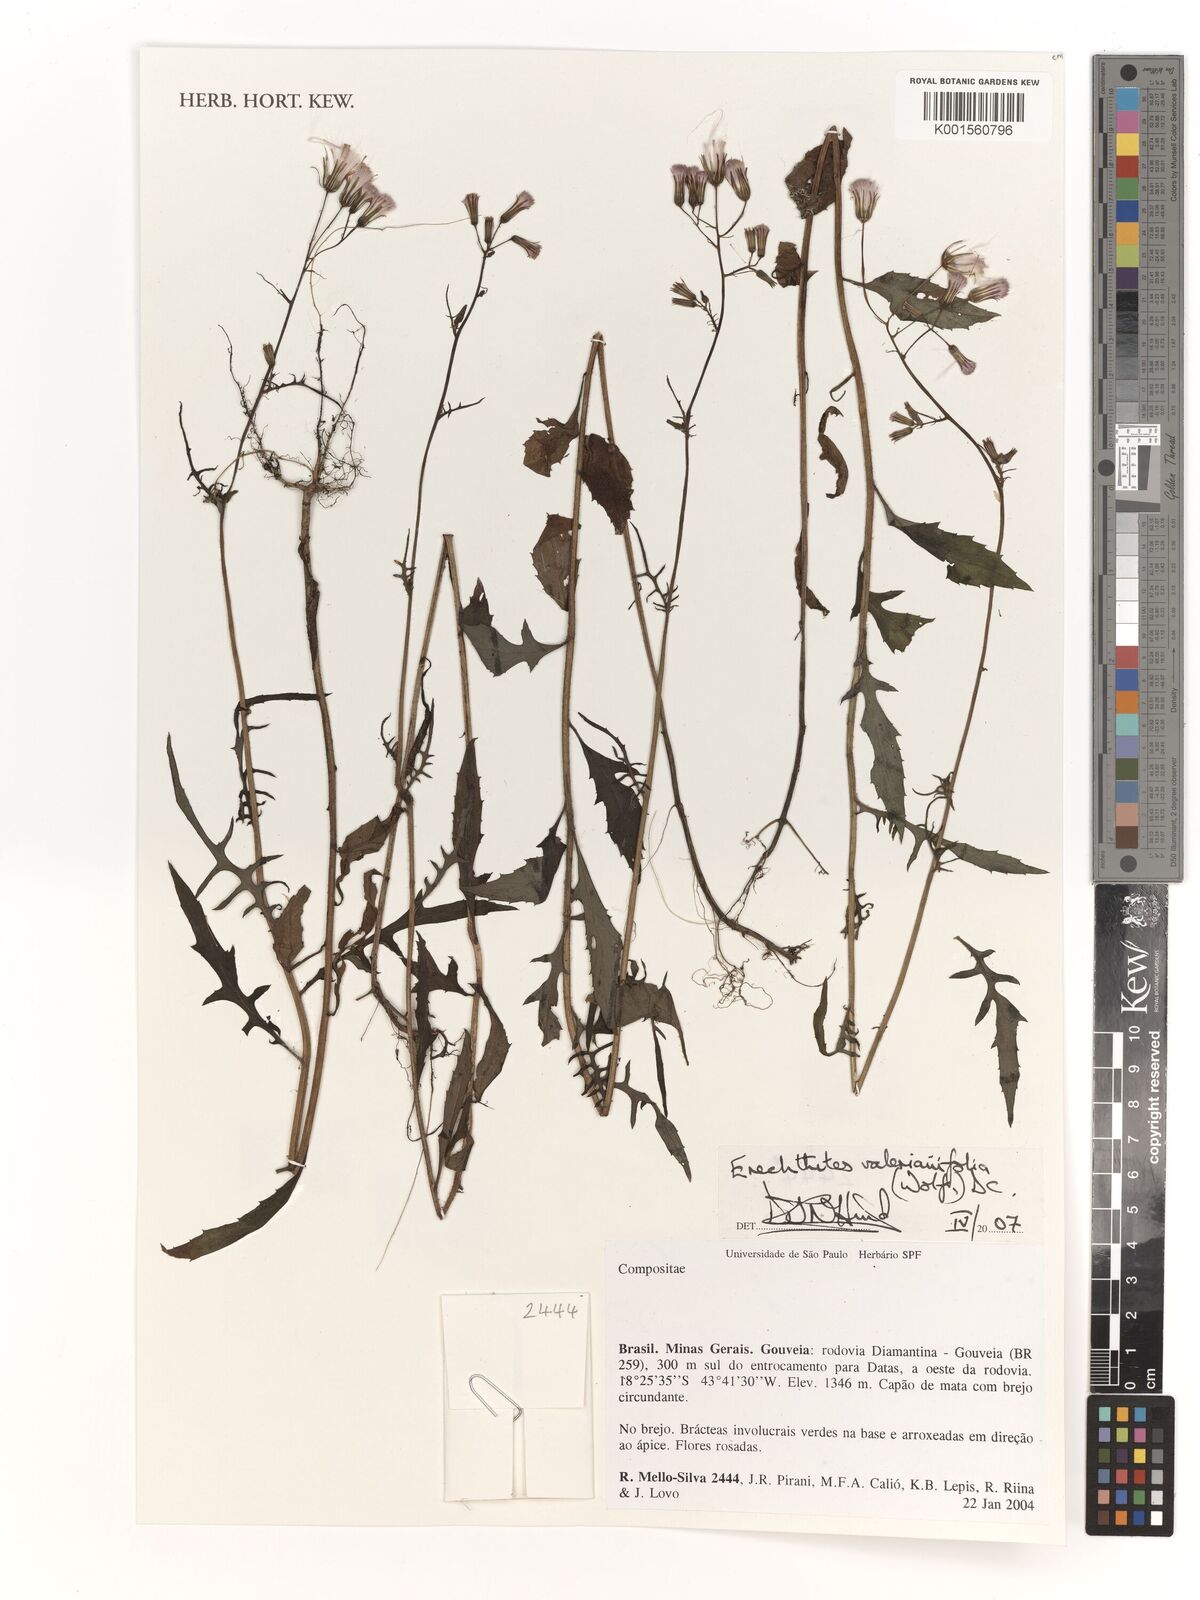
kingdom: Plantae
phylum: Tracheophyta
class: Magnoliopsida
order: Asterales
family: Asteraceae
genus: Senecio
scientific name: Senecio
